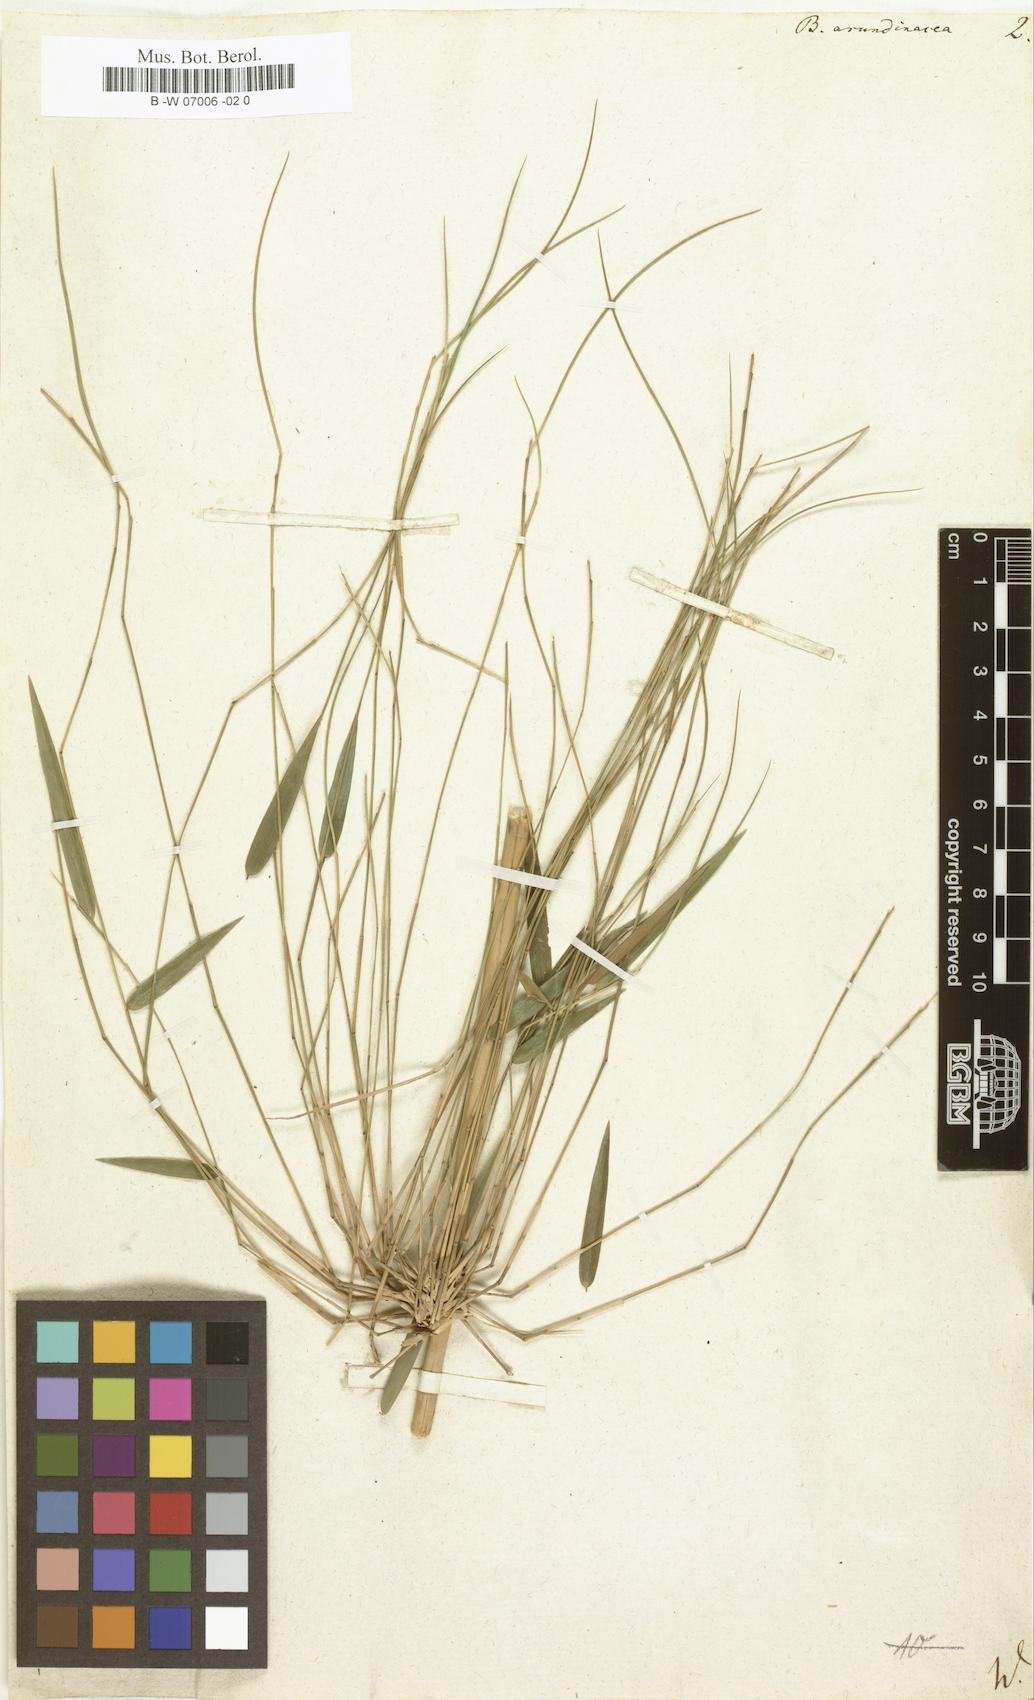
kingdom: Plantae
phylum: Tracheophyta
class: Liliopsida
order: Poales
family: Poaceae
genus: Bambusa
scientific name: Bambusa arundinacea
